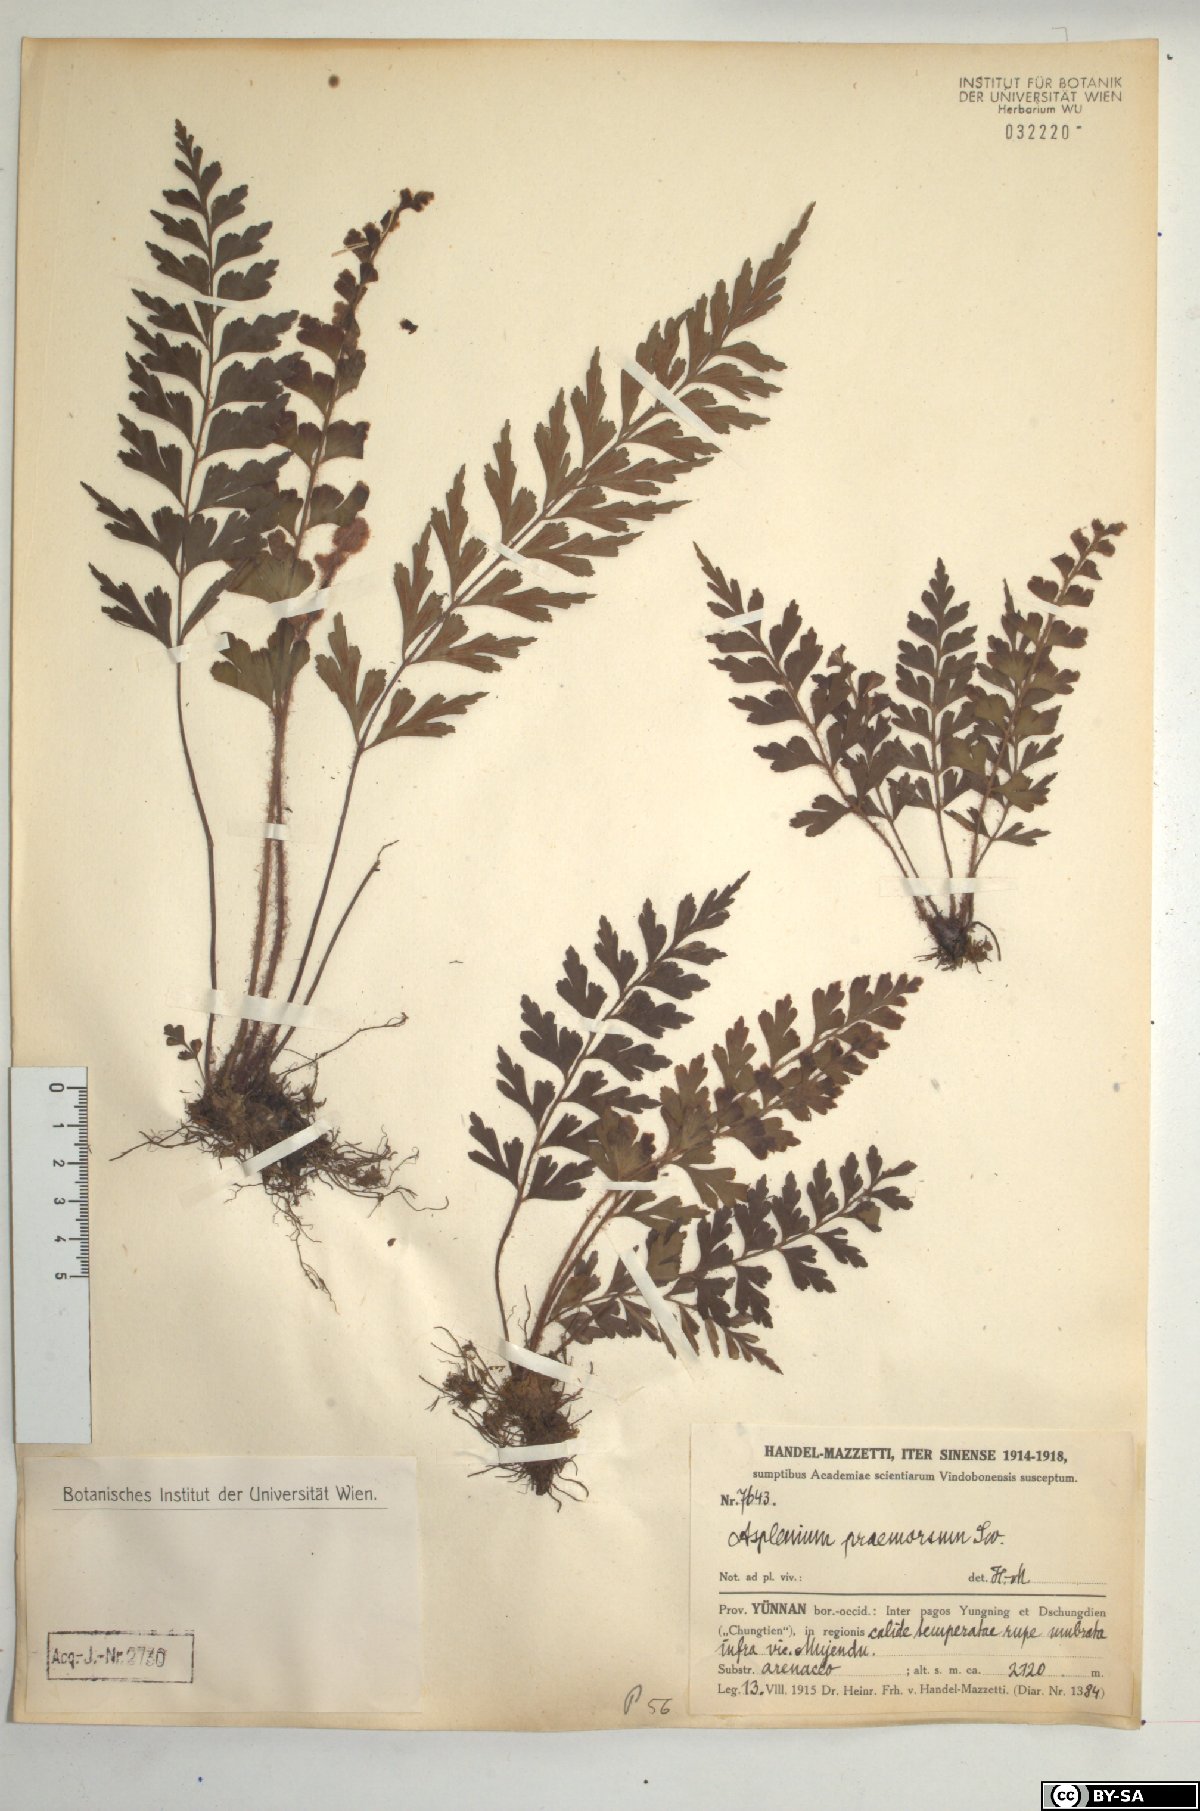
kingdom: Plantae
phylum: Tracheophyta
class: Polypodiopsida
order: Polypodiales
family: Aspleniaceae
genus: Asplenium
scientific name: Asplenium praemorsum
